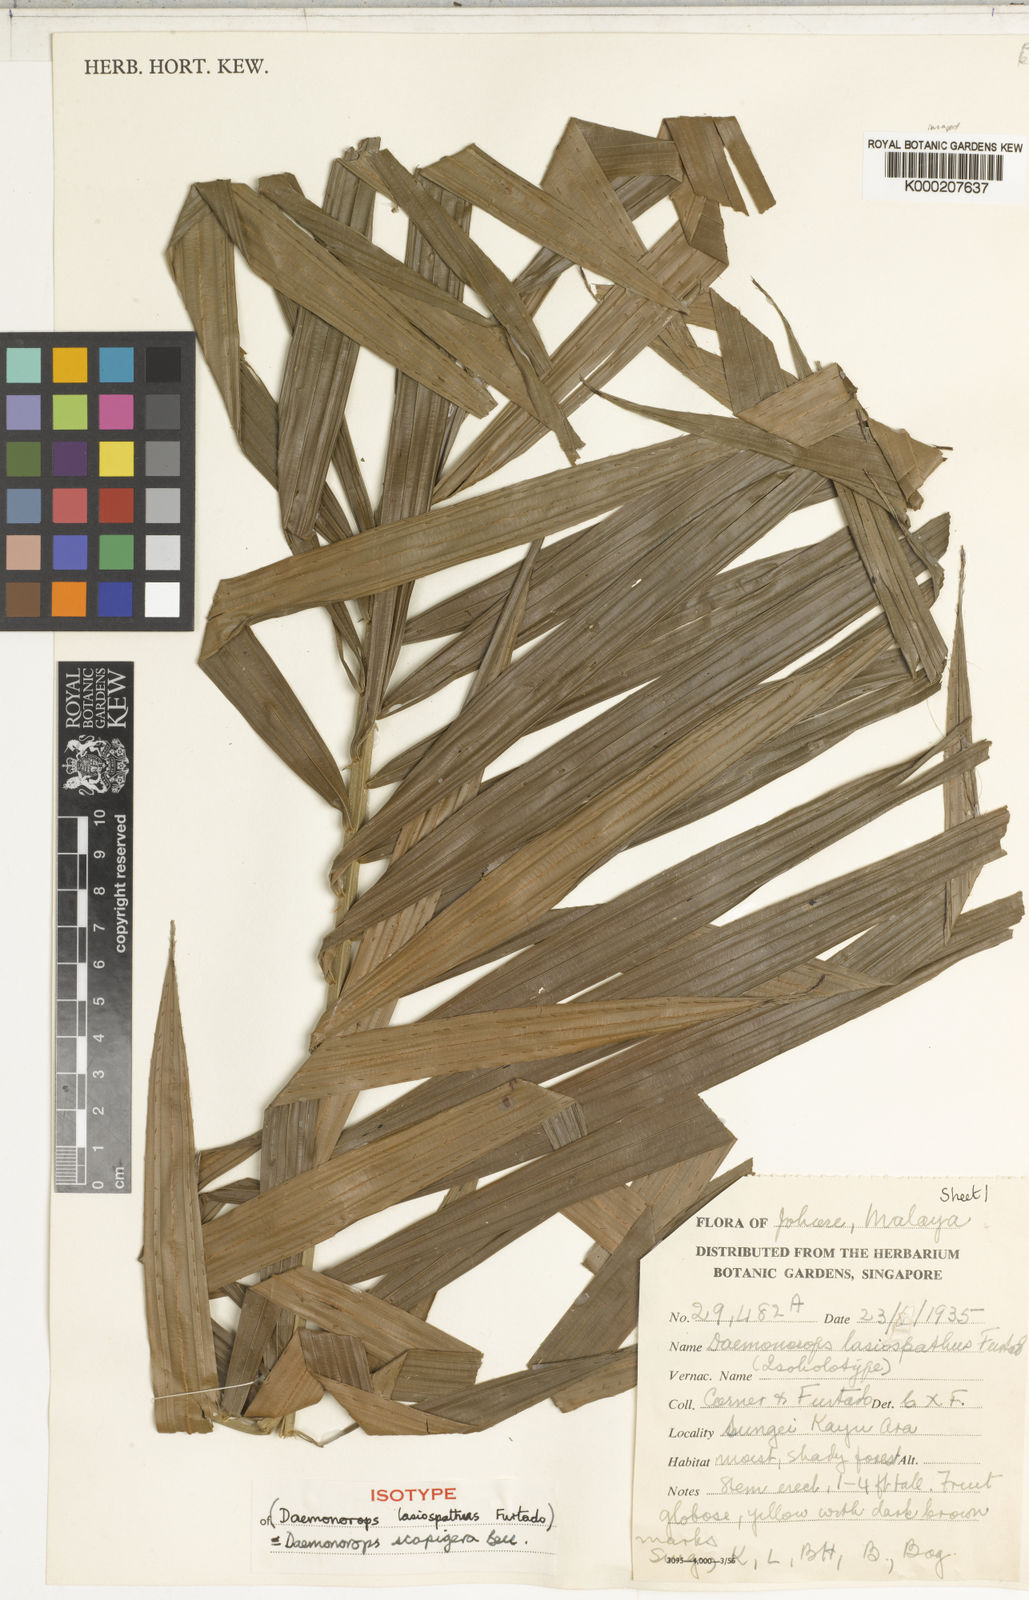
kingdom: Plantae
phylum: Tracheophyta
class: Liliopsida
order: Arecales
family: Arecaceae
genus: Calamus
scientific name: Calamus scapigerus
